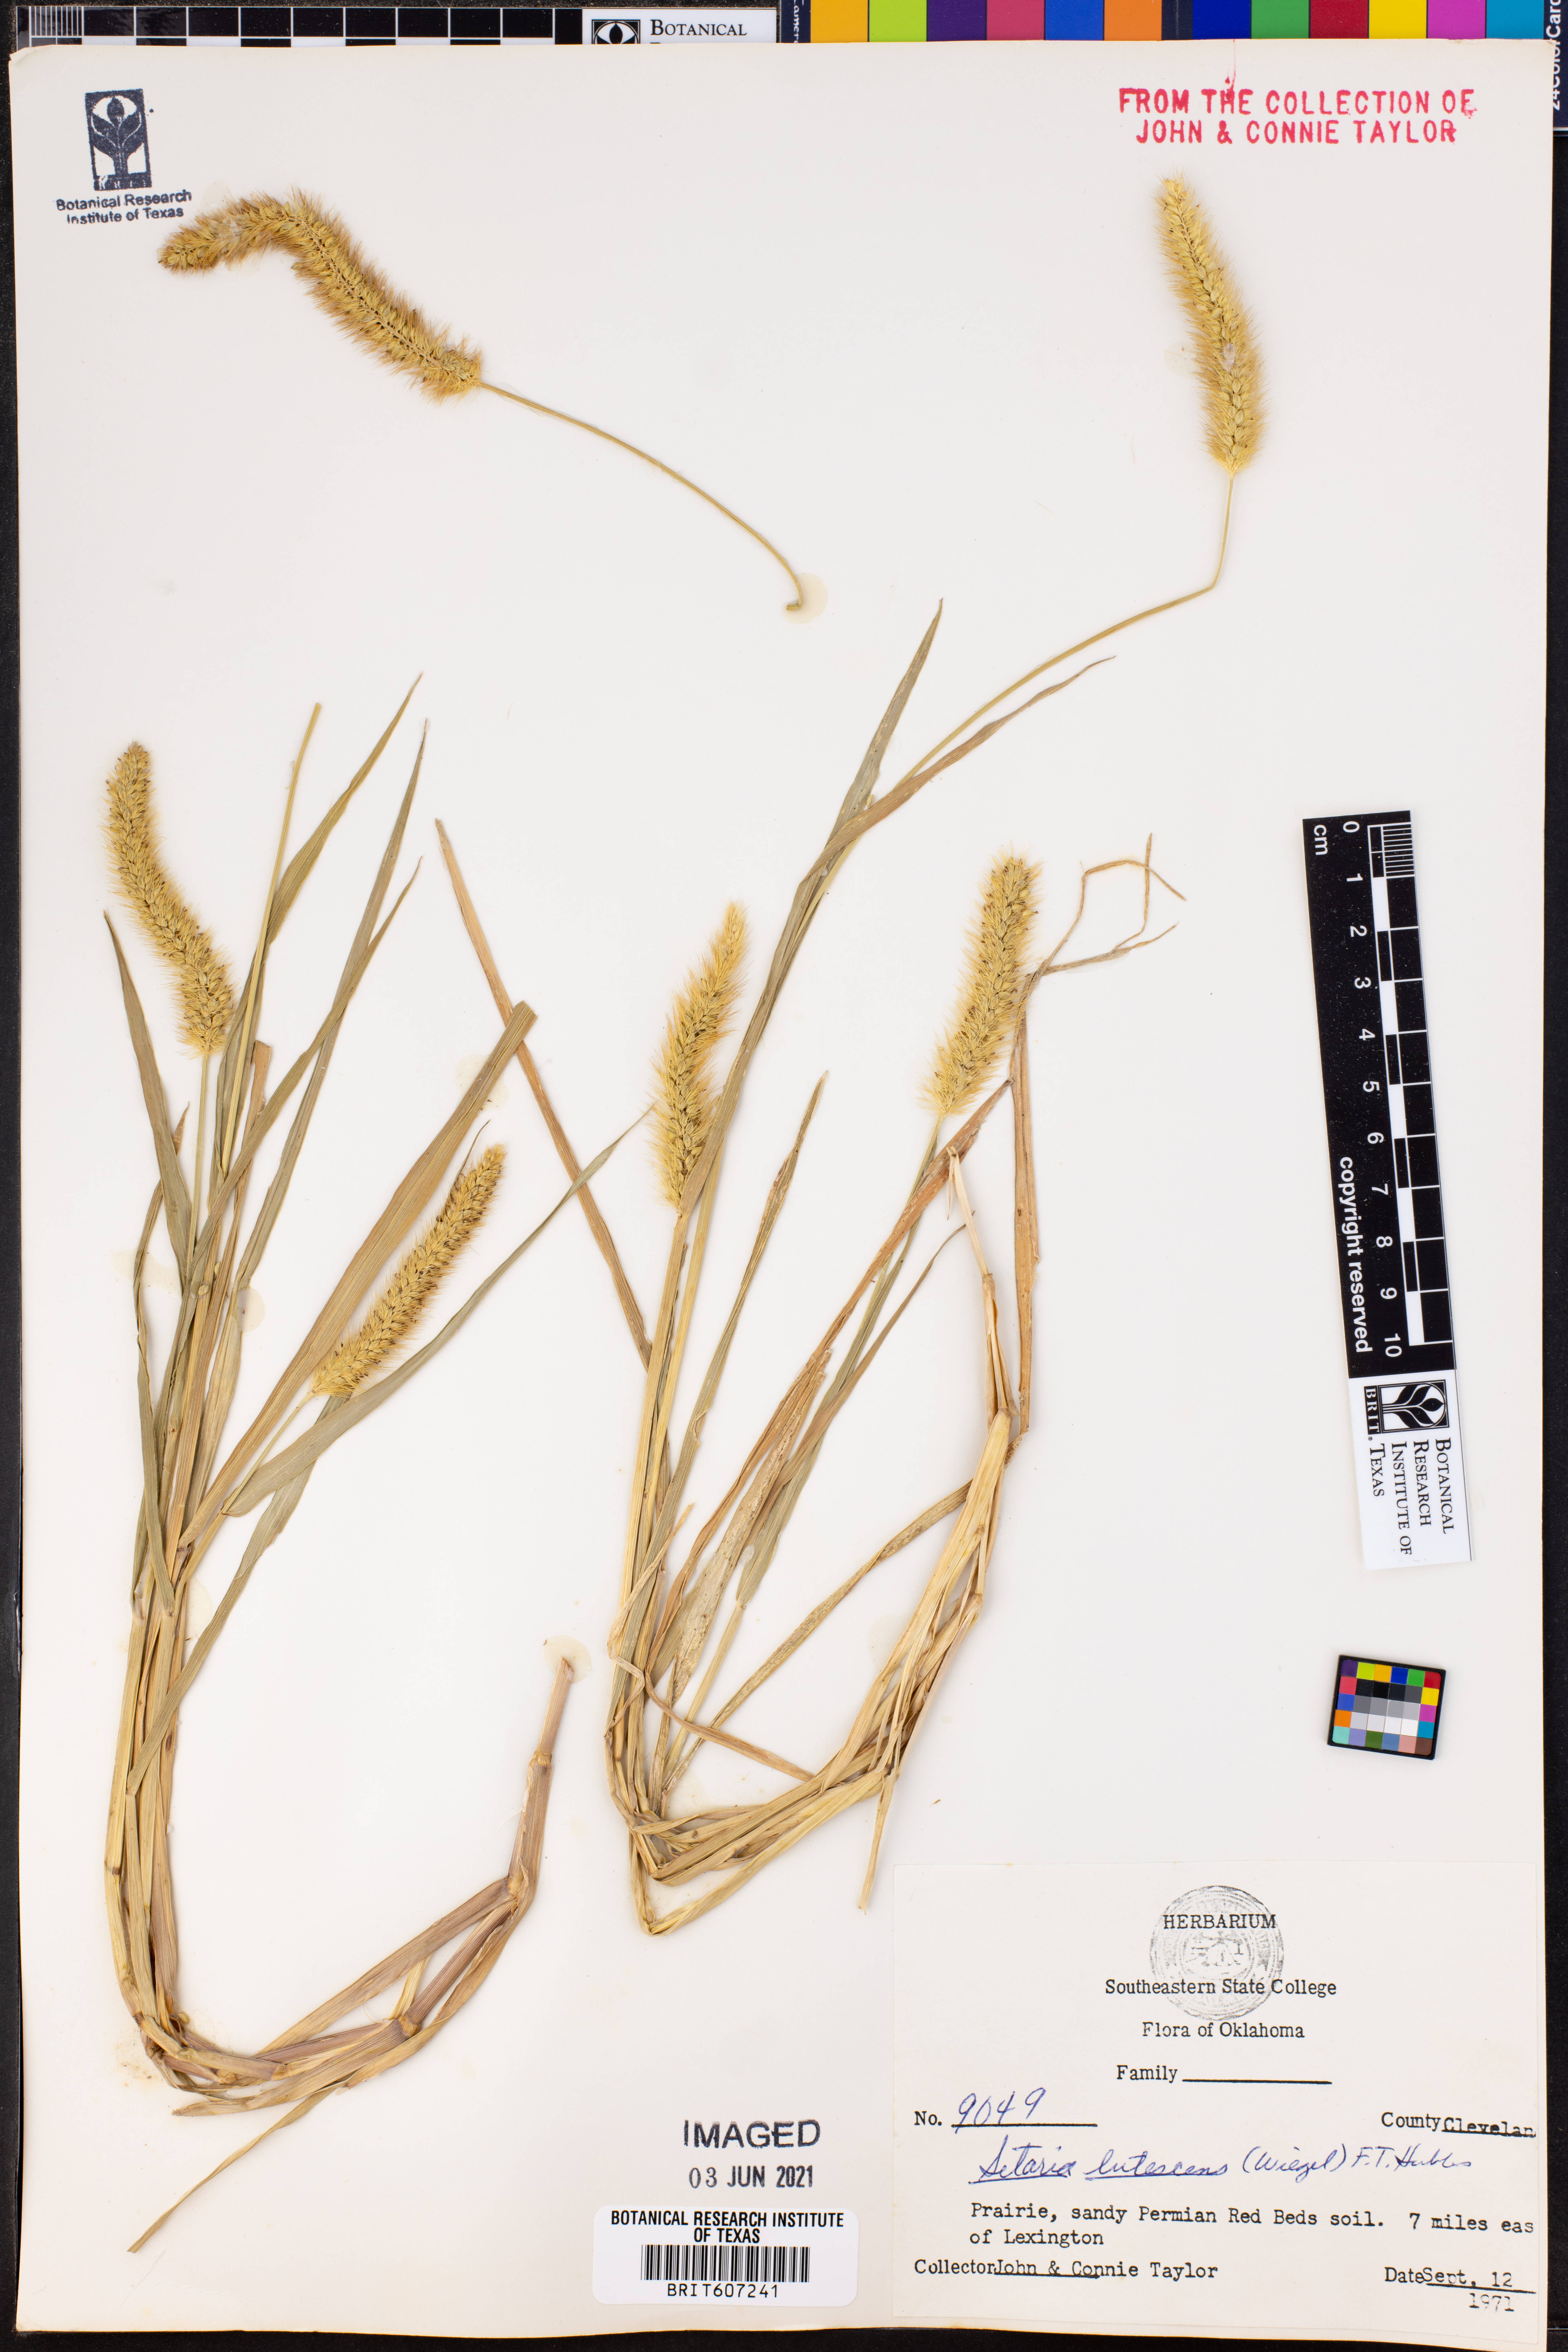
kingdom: Plantae
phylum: Tracheophyta
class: Liliopsida
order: Poales
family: Poaceae
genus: Cenchrus
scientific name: Cenchrus americanus
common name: Pearl millet
